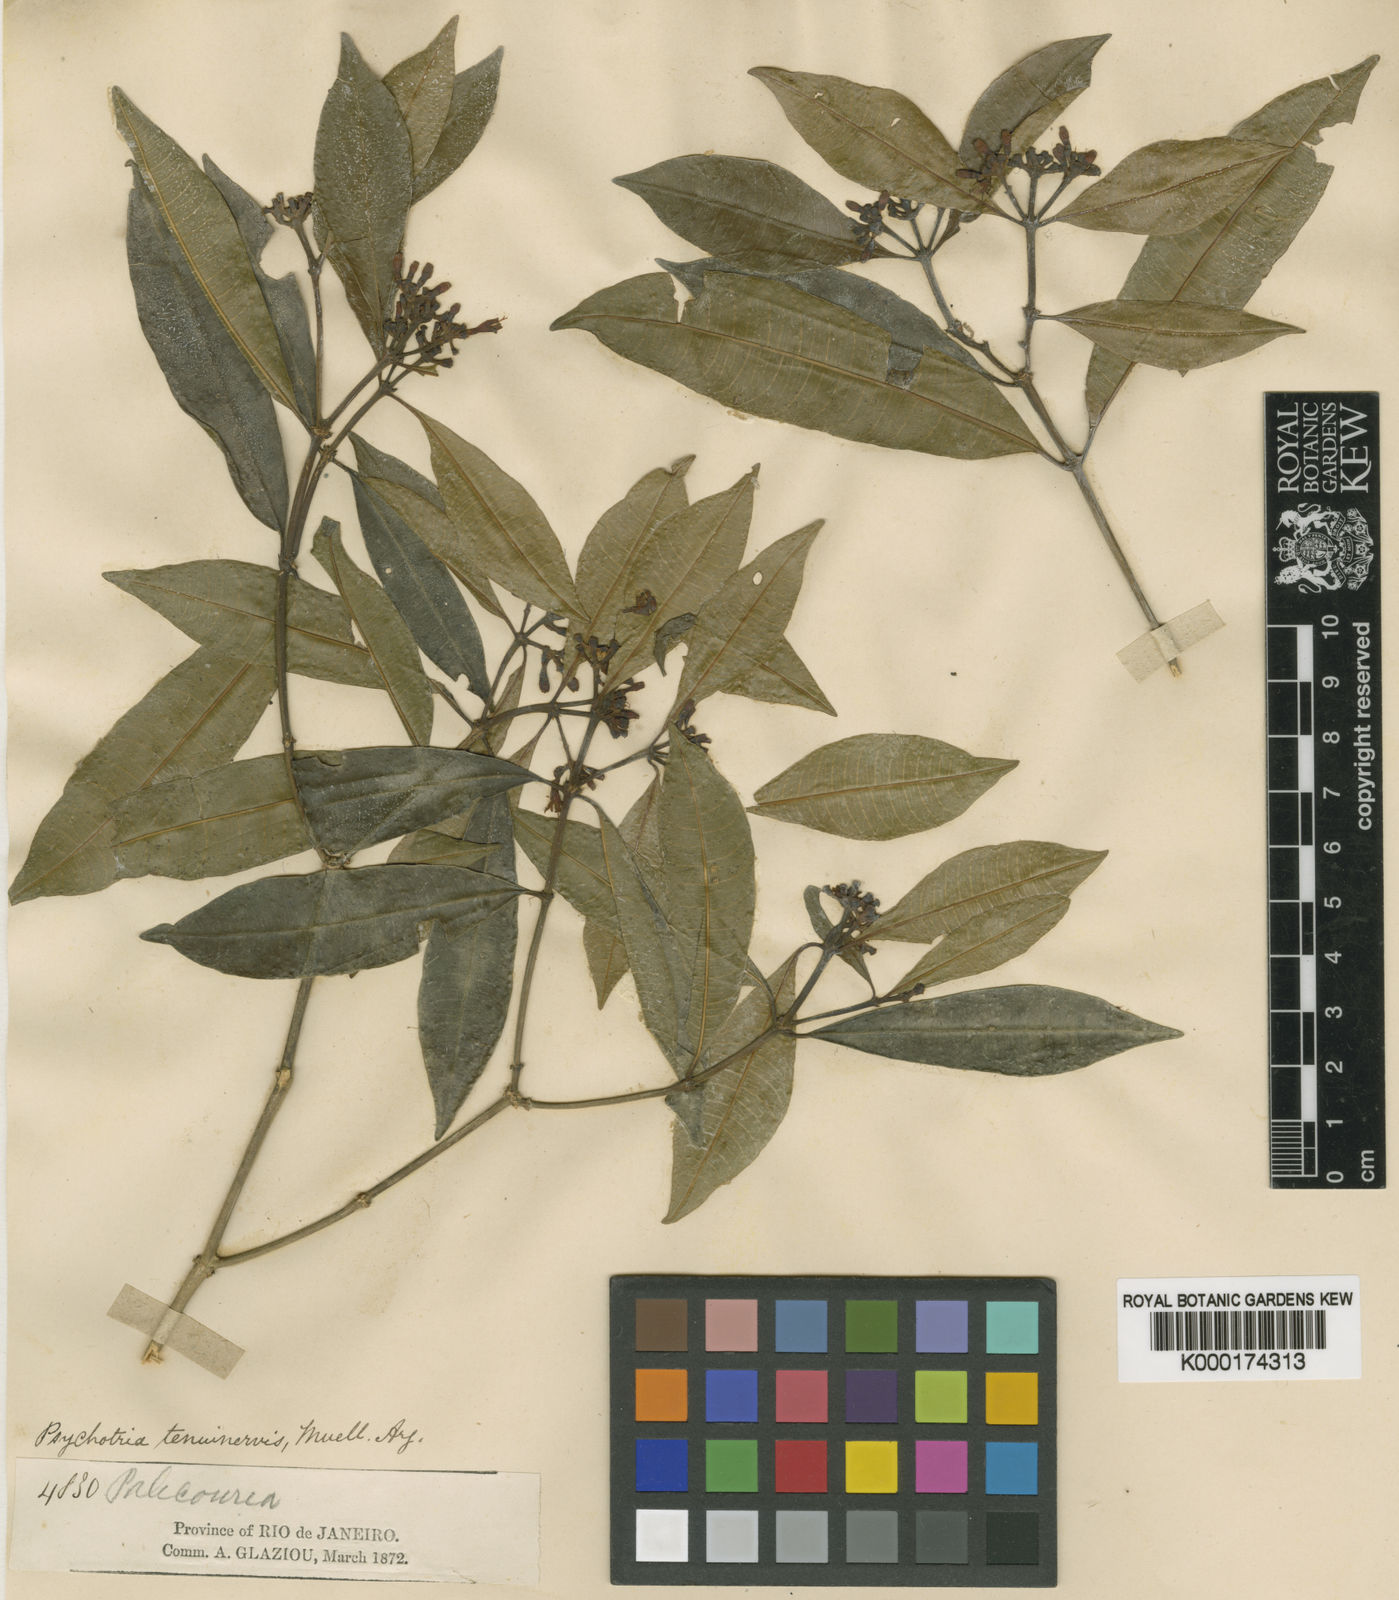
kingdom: Plantae
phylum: Tracheophyta
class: Magnoliopsida
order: Gentianales
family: Rubiaceae
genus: Psychotria
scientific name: Psychotria
